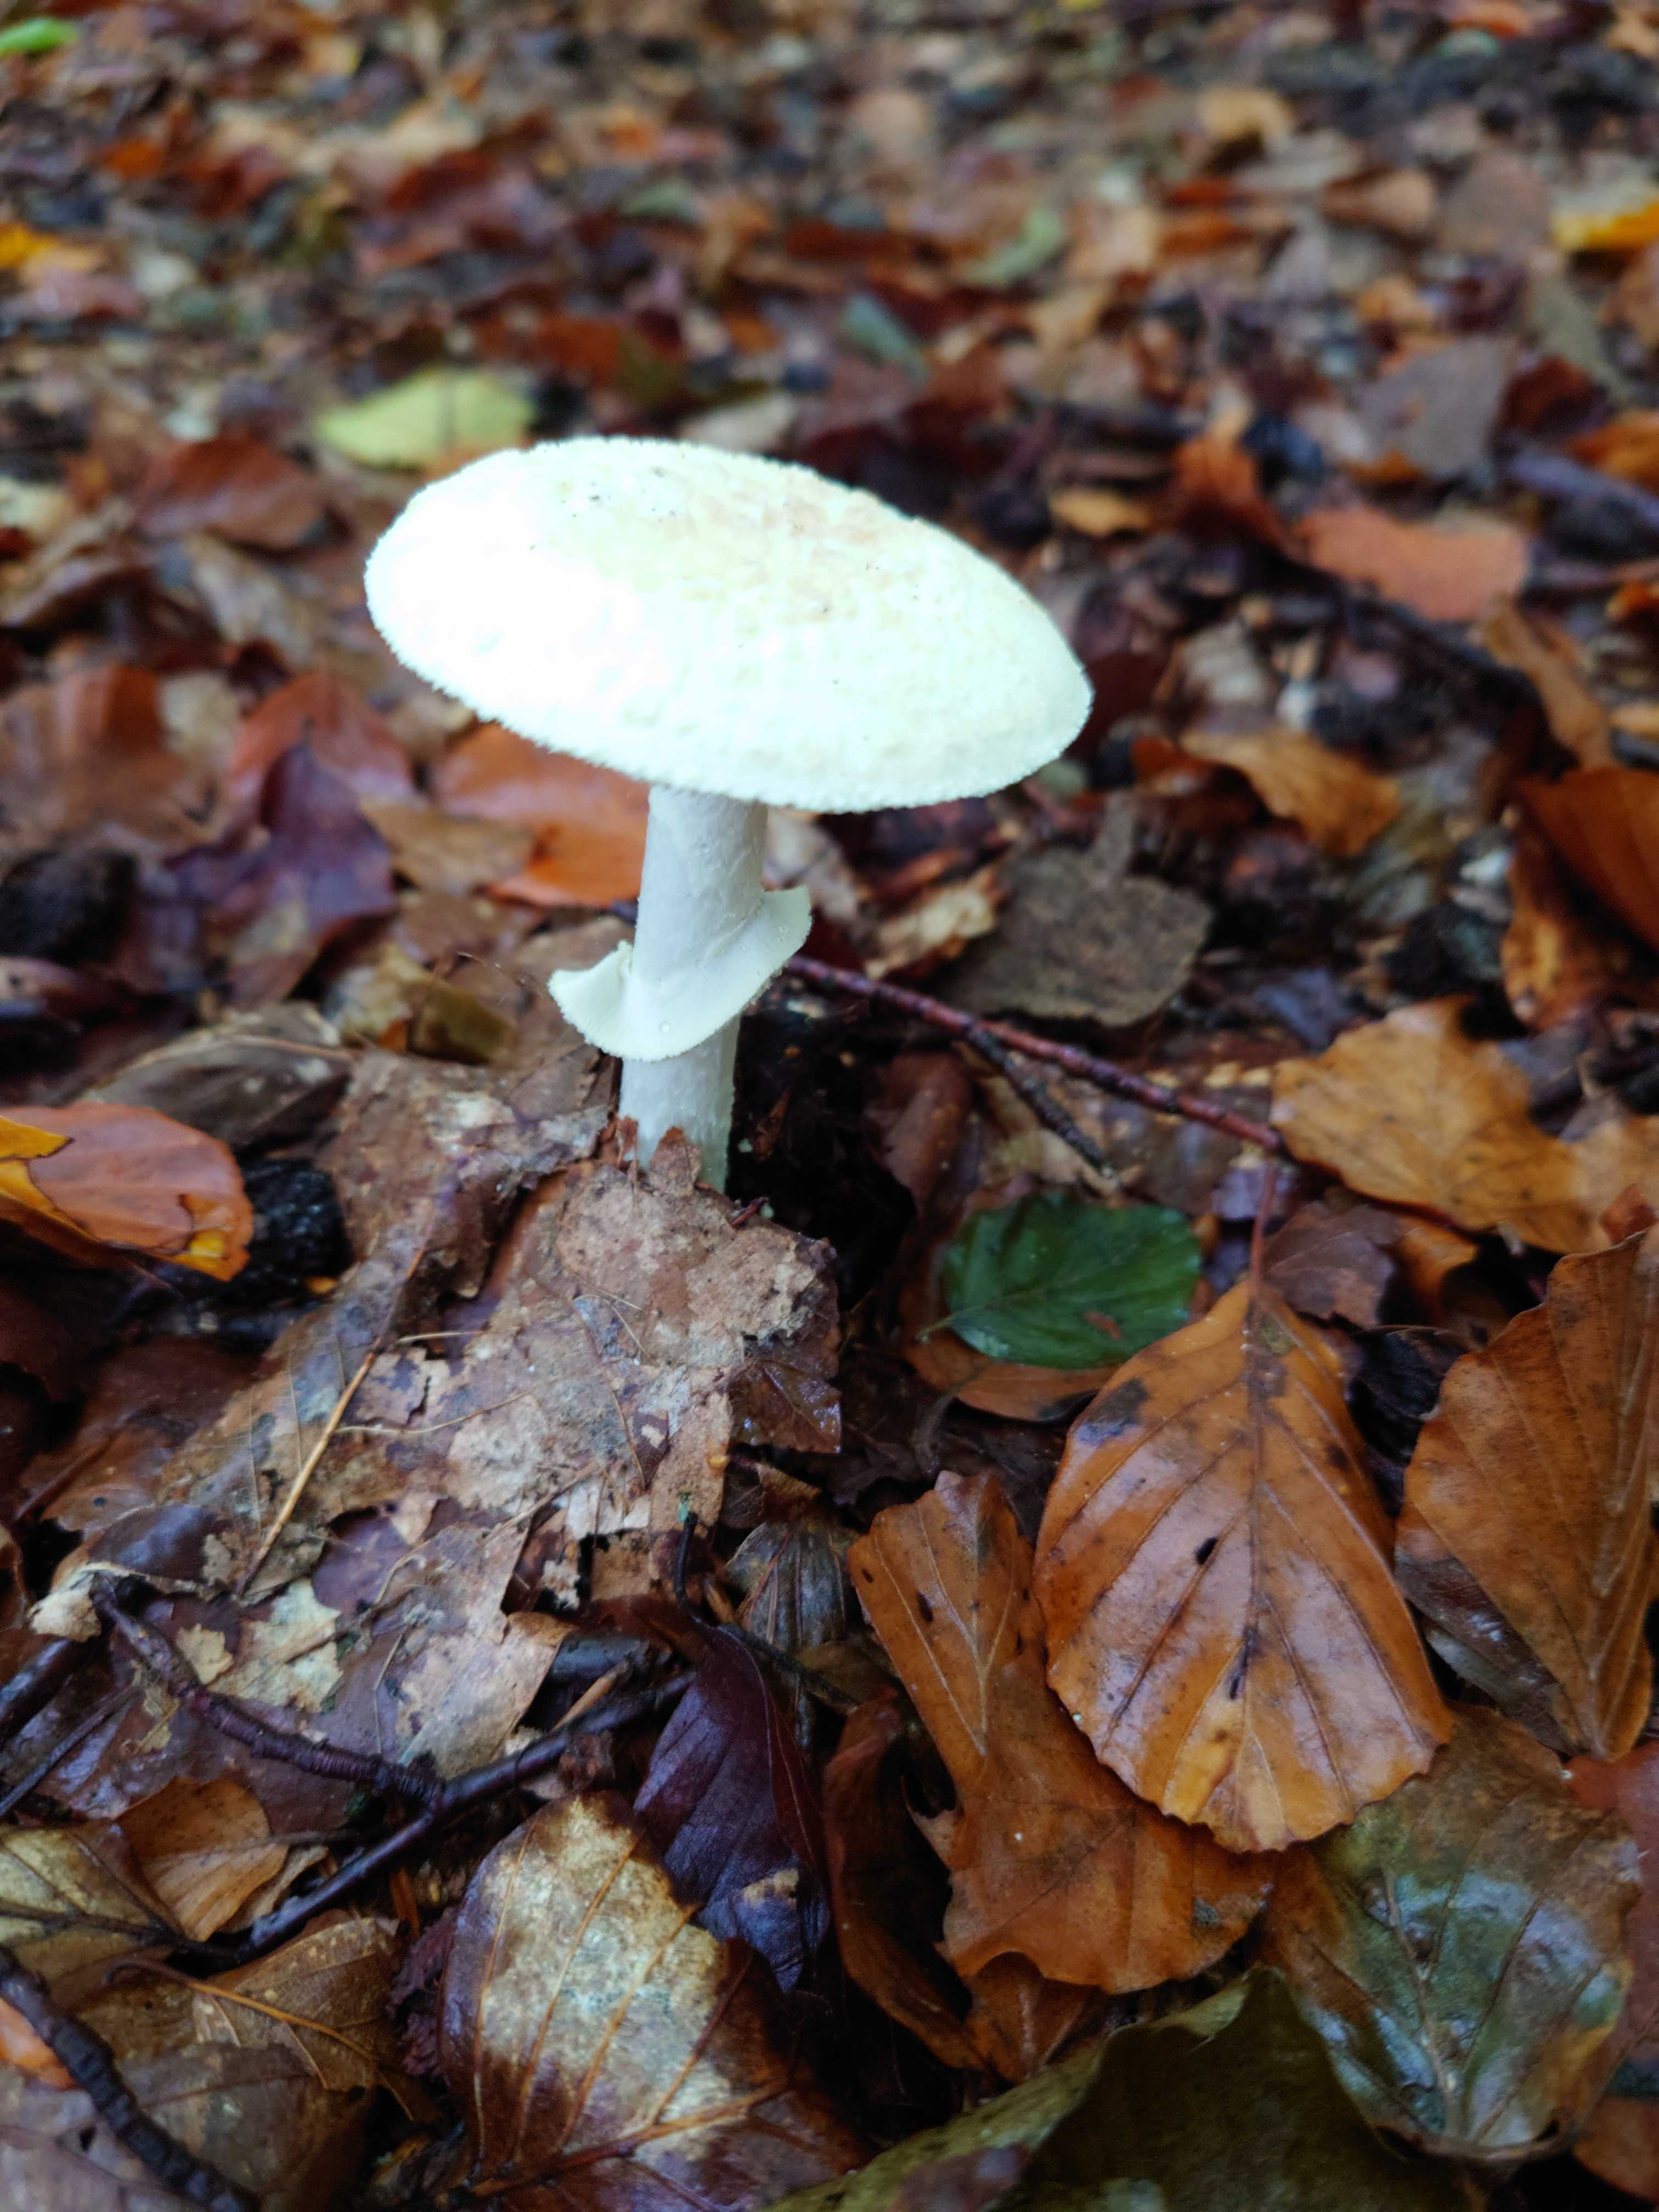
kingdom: Fungi
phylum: Basidiomycota
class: Agaricomycetes
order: Agaricales
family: Amanitaceae
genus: Amanita
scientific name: Amanita citrina
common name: kugleknoldet fluesvamp
